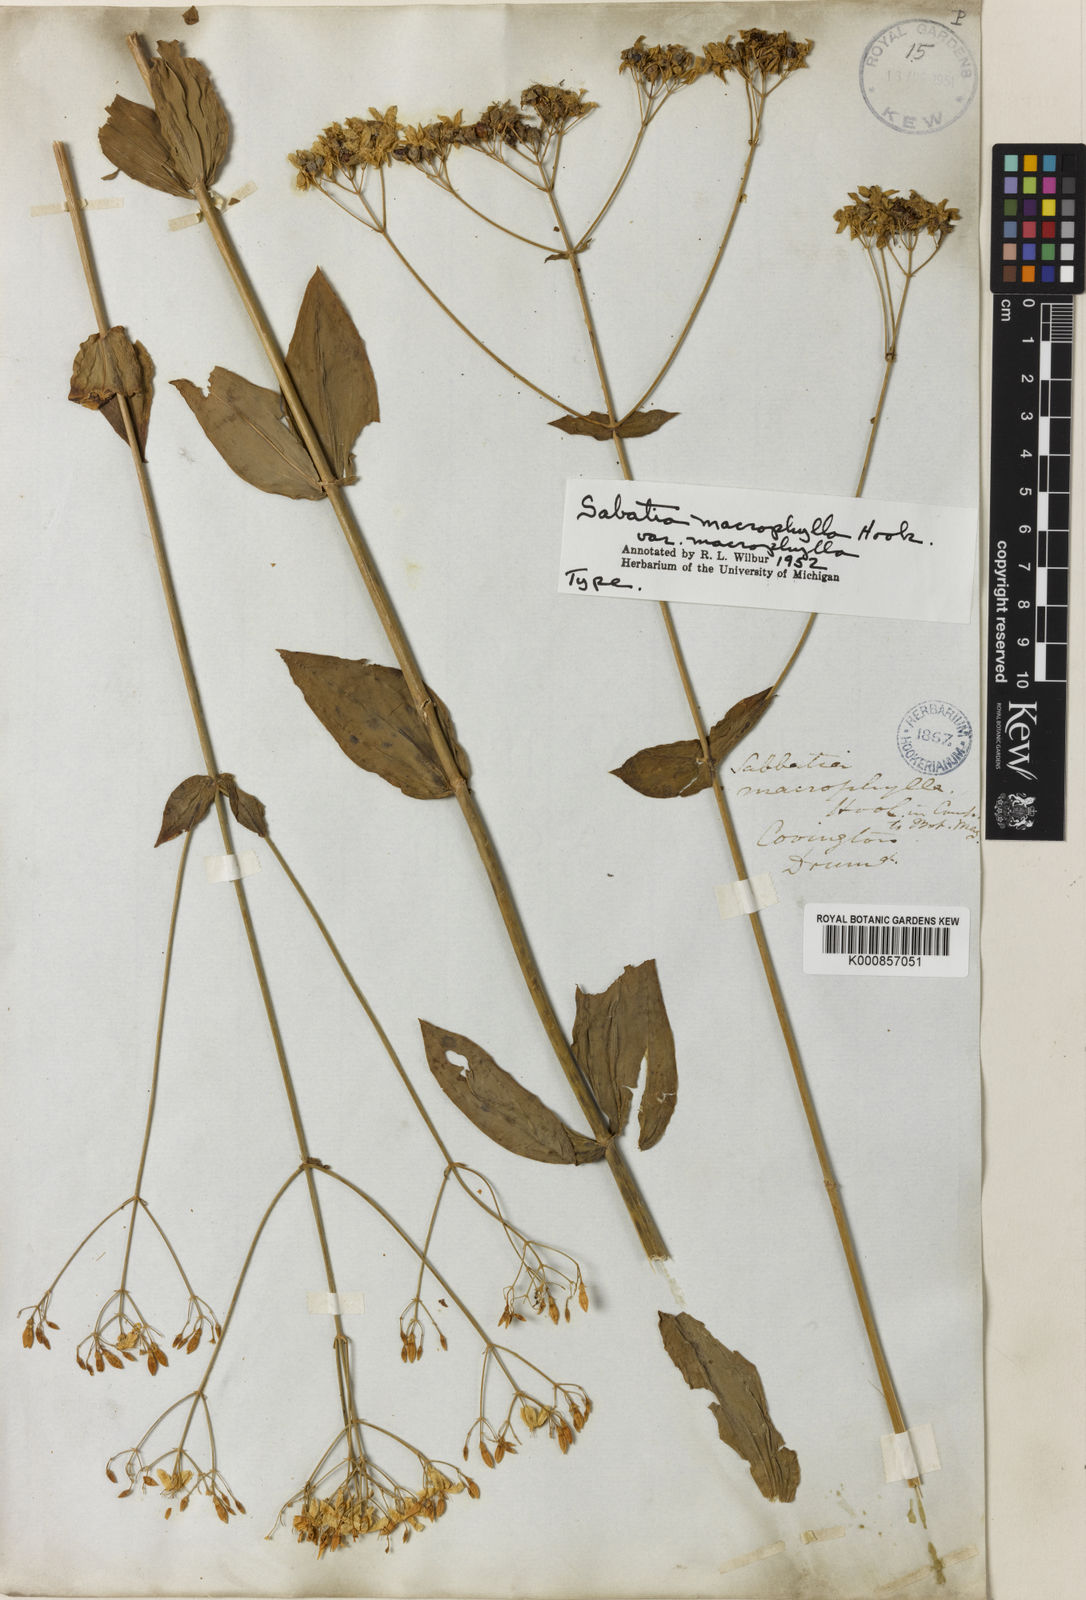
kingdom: Plantae
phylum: Tracheophyta
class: Magnoliopsida
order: Gentianales
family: Gentianaceae
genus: Sabatia
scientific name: Sabatia macrophylla
